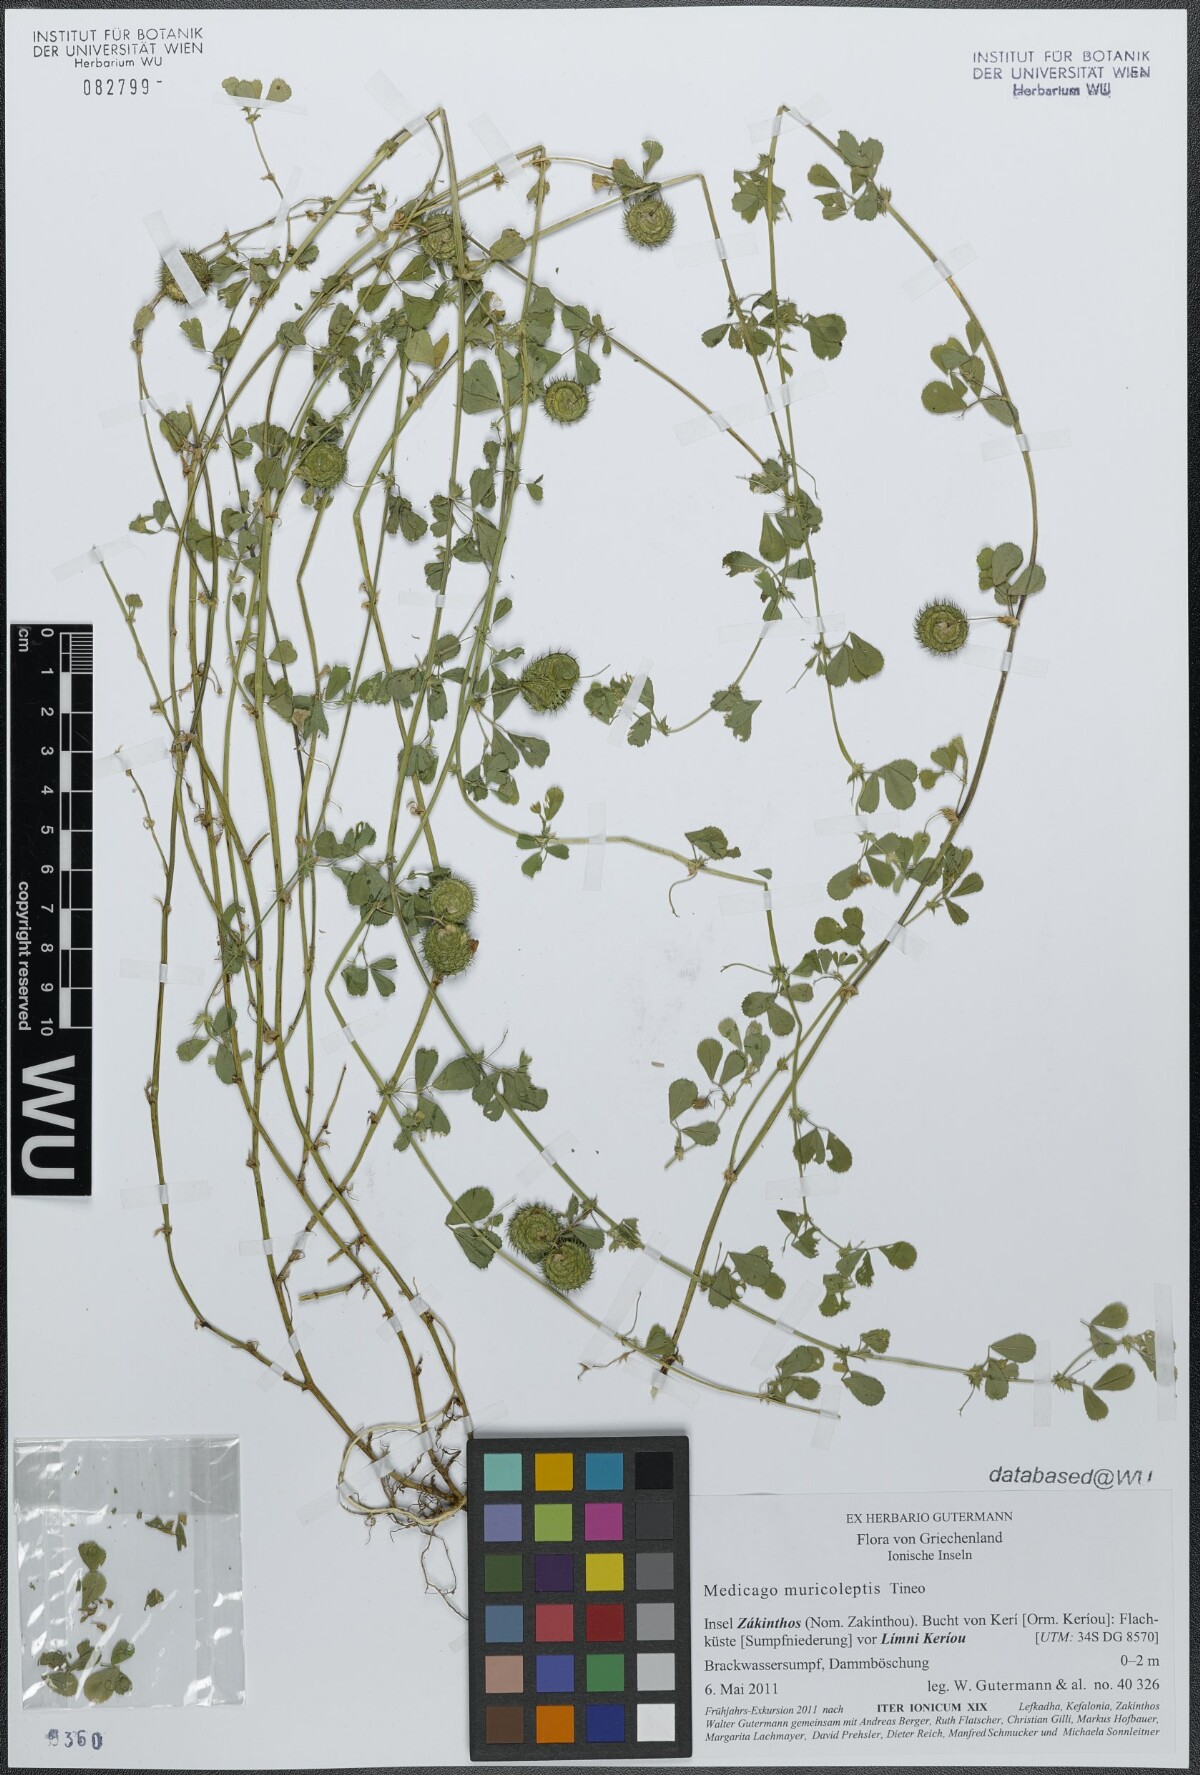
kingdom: Plantae
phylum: Tracheophyta
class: Magnoliopsida
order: Fabales
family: Fabaceae
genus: Medicago
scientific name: Medicago muricoleptis
